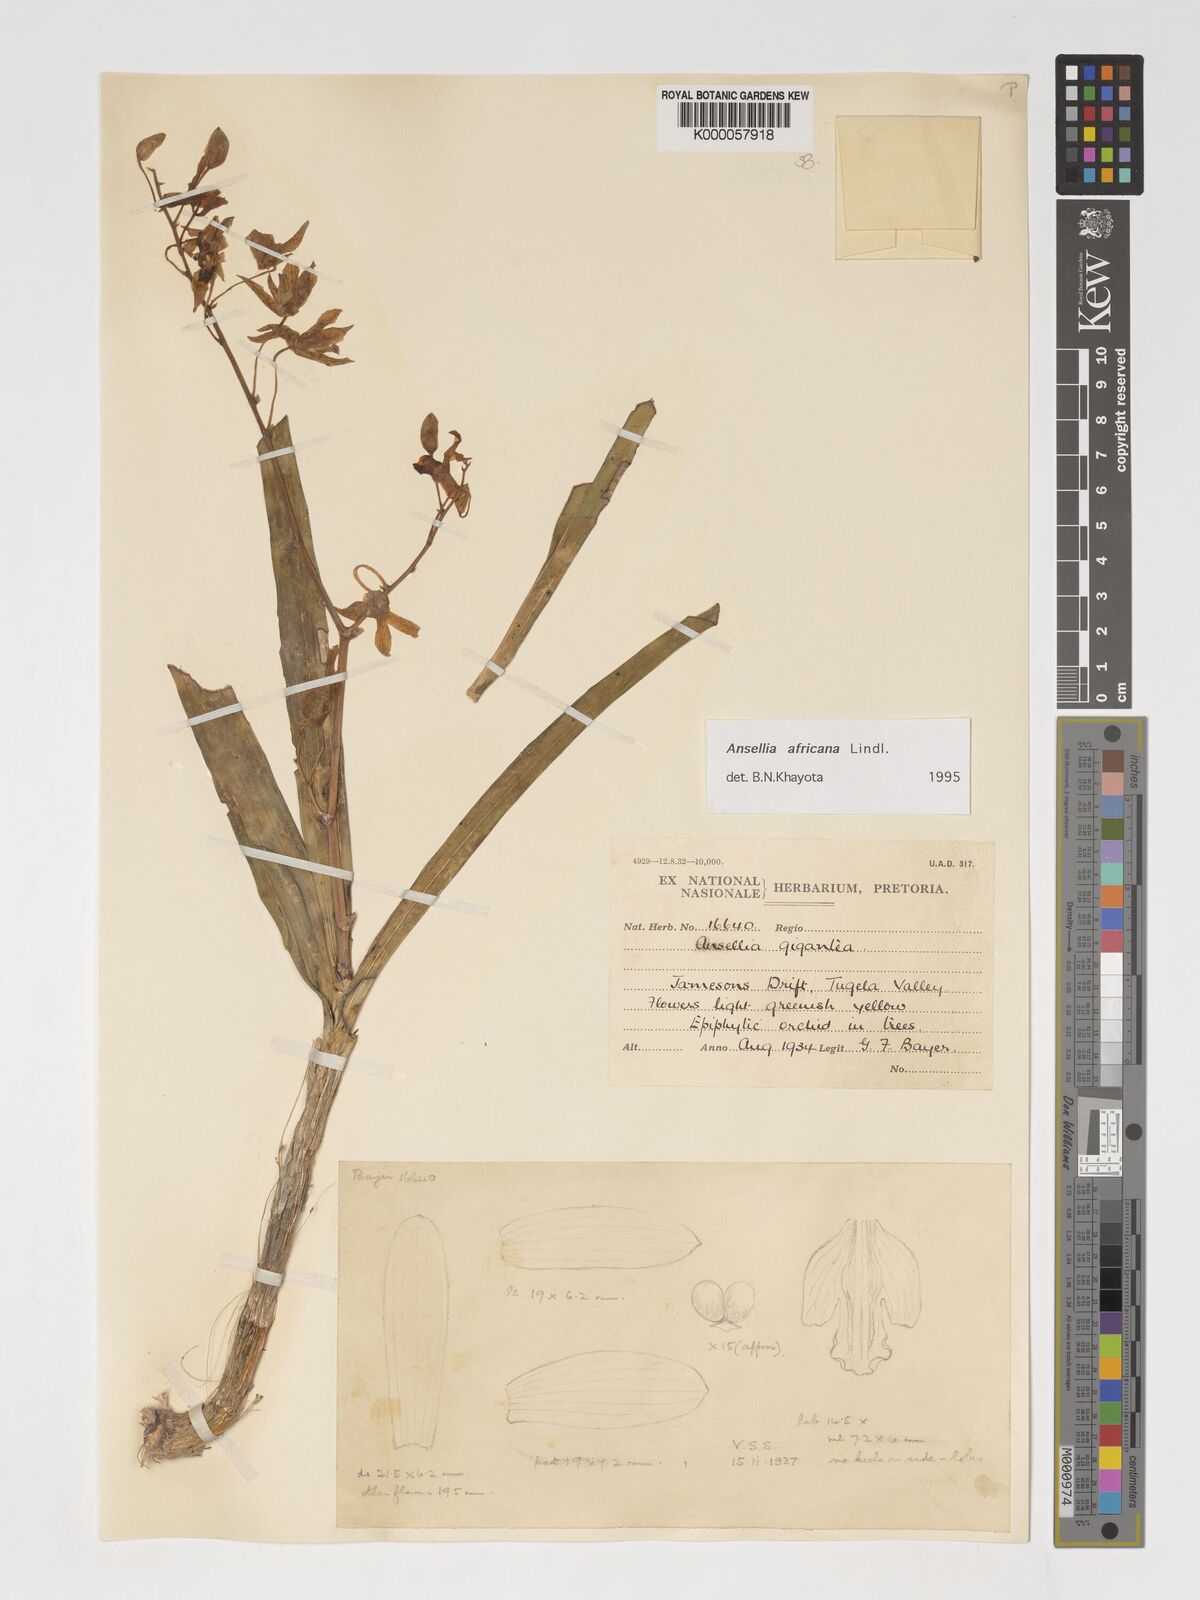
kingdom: Plantae
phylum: Tracheophyta
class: Liliopsida
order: Asparagales
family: Orchidaceae
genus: Ansellia
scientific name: Ansellia africana
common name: African ansellia
